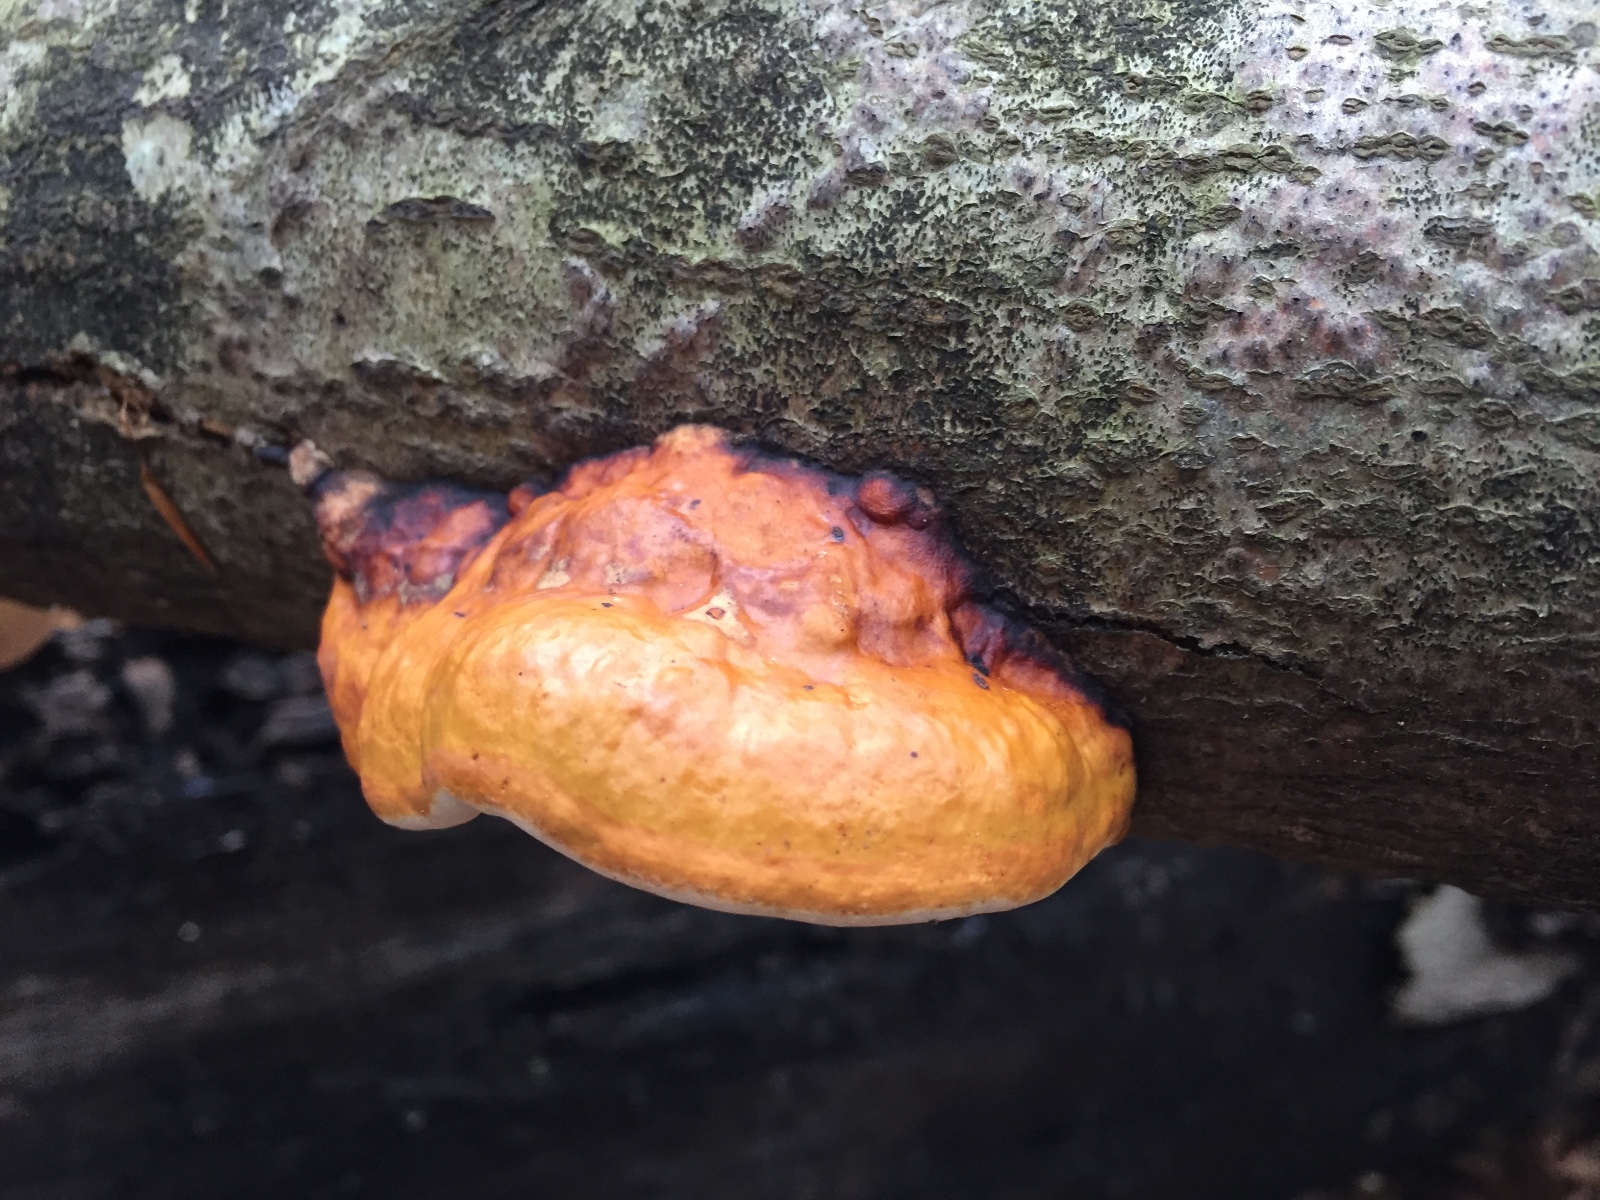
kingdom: Fungi
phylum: Basidiomycota
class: Agaricomycetes
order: Polyporales
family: Fomitopsidaceae
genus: Fomitopsis
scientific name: Fomitopsis pinicola
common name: randbæltet hovporesvamp
